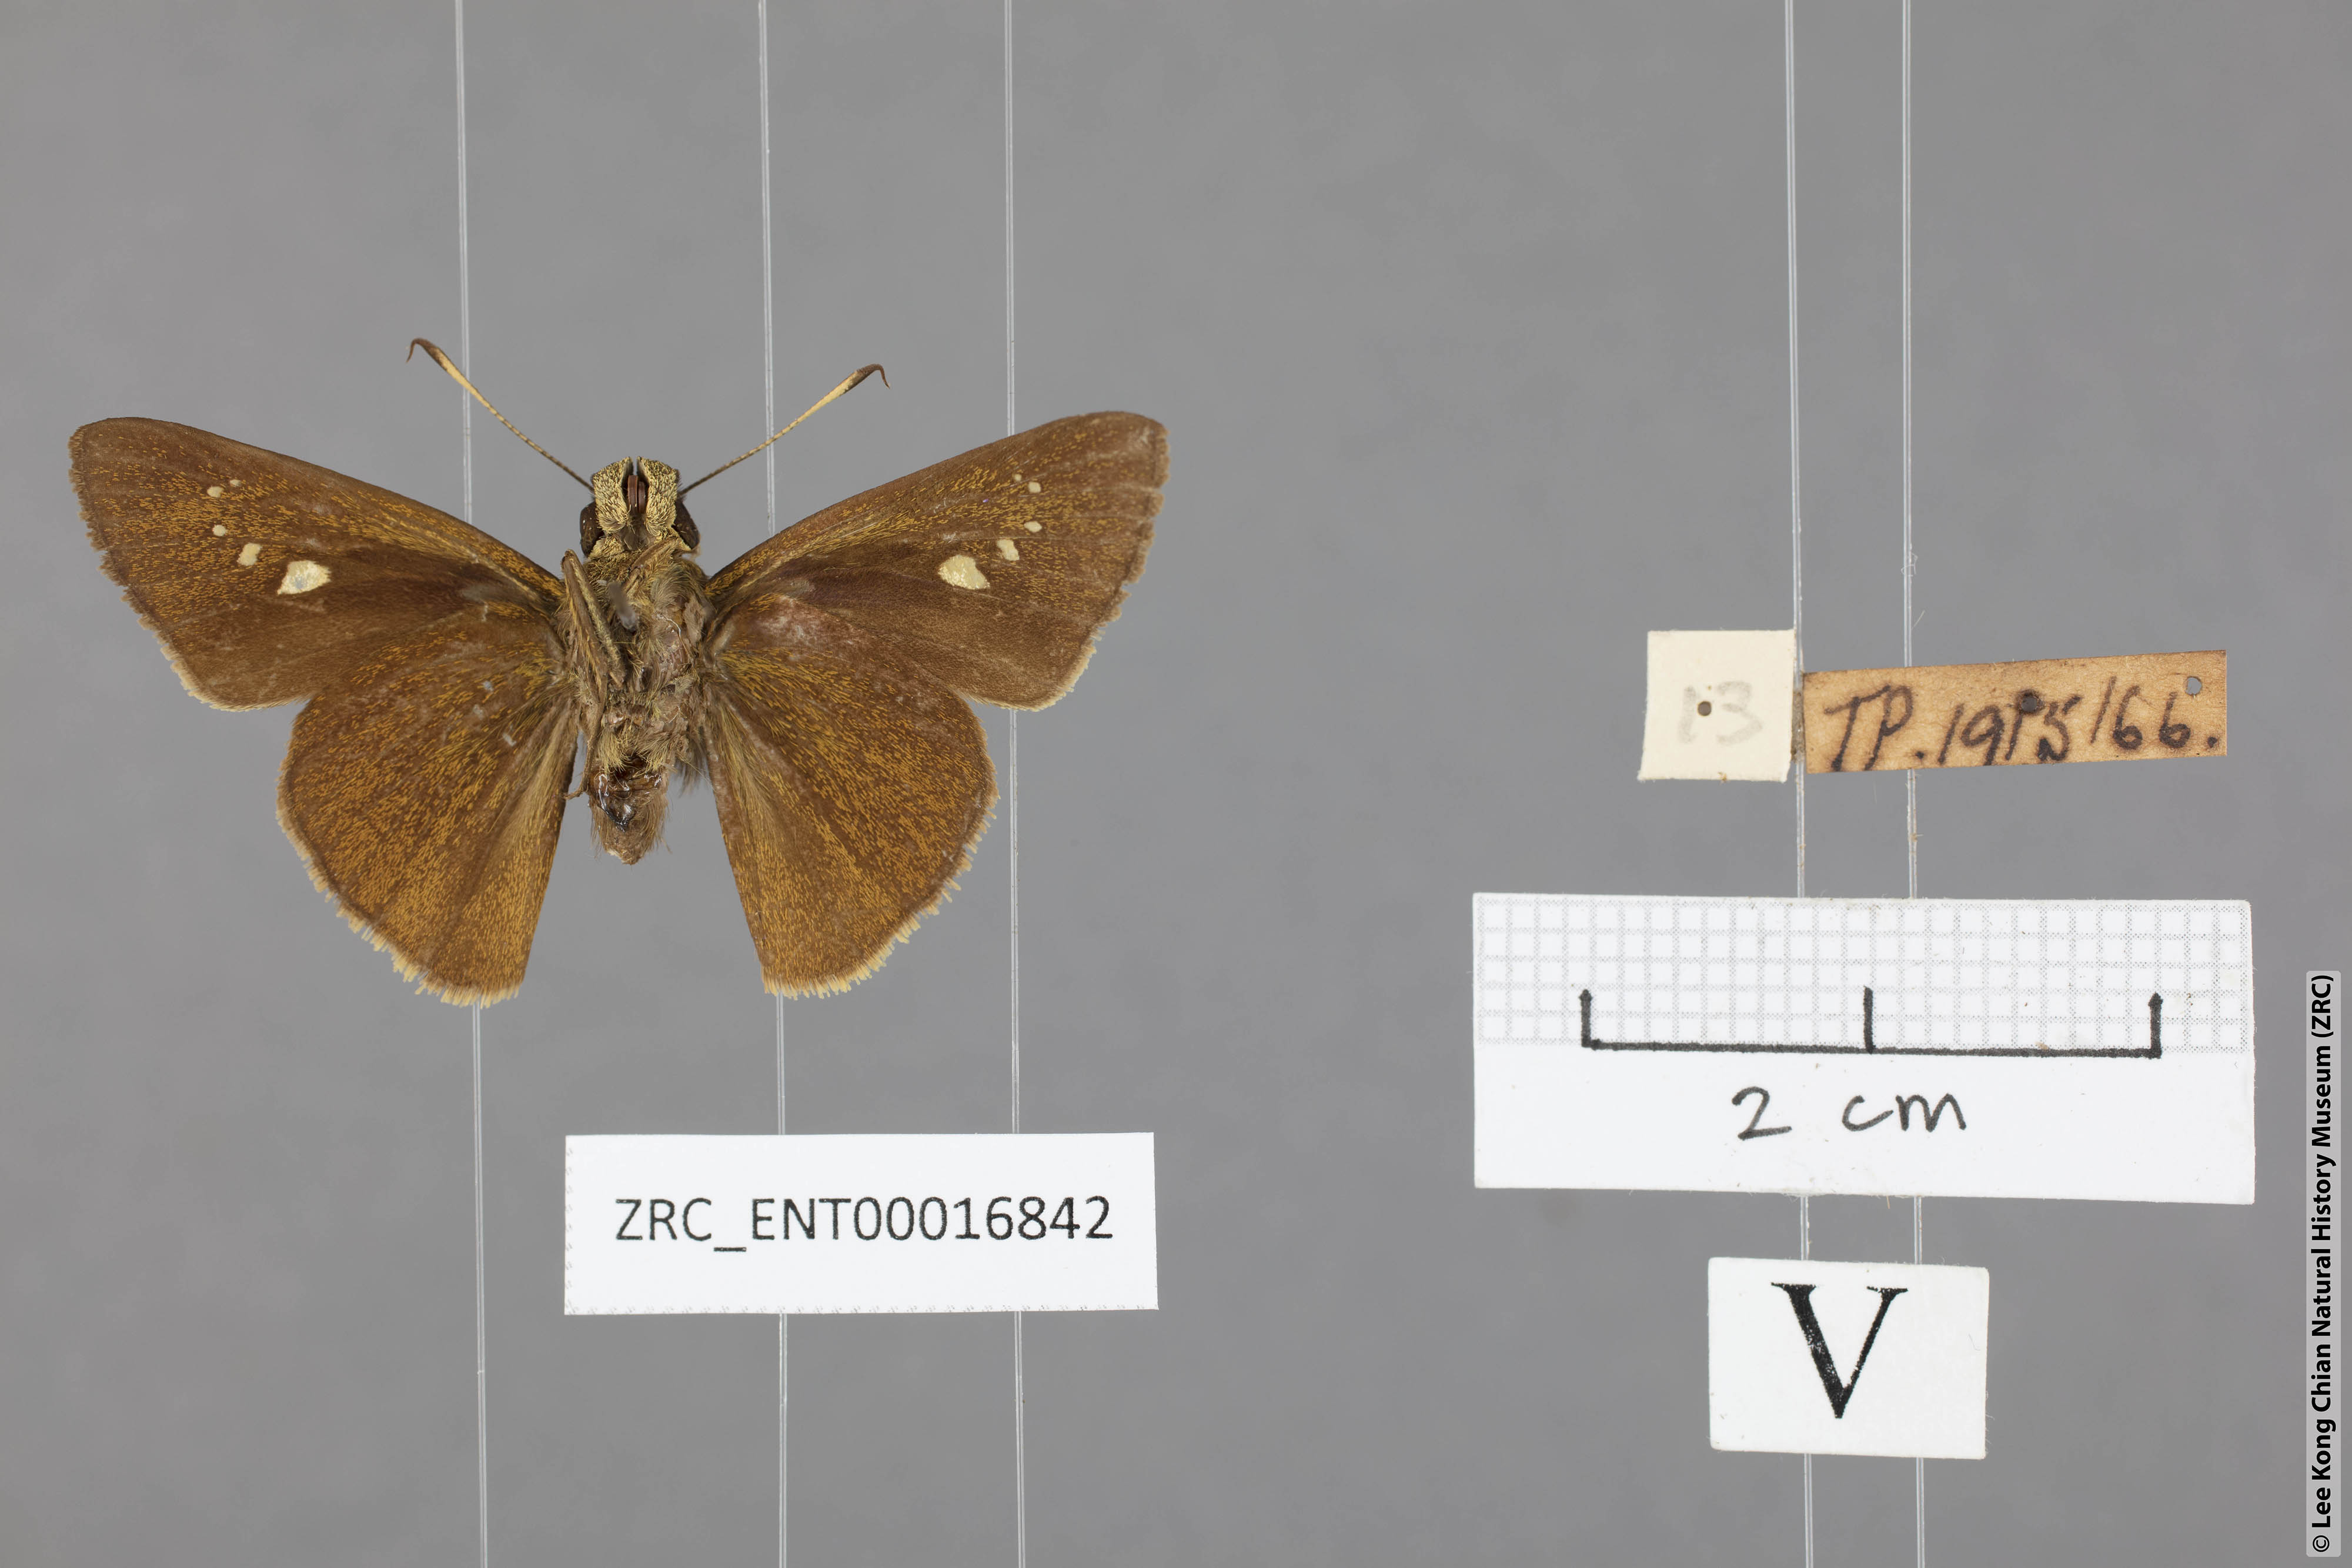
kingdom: Animalia
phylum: Arthropoda
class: Insecta
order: Lepidoptera
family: Hesperiidae
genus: Caltoris
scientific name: Caltoris malaya
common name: Malayan swift
